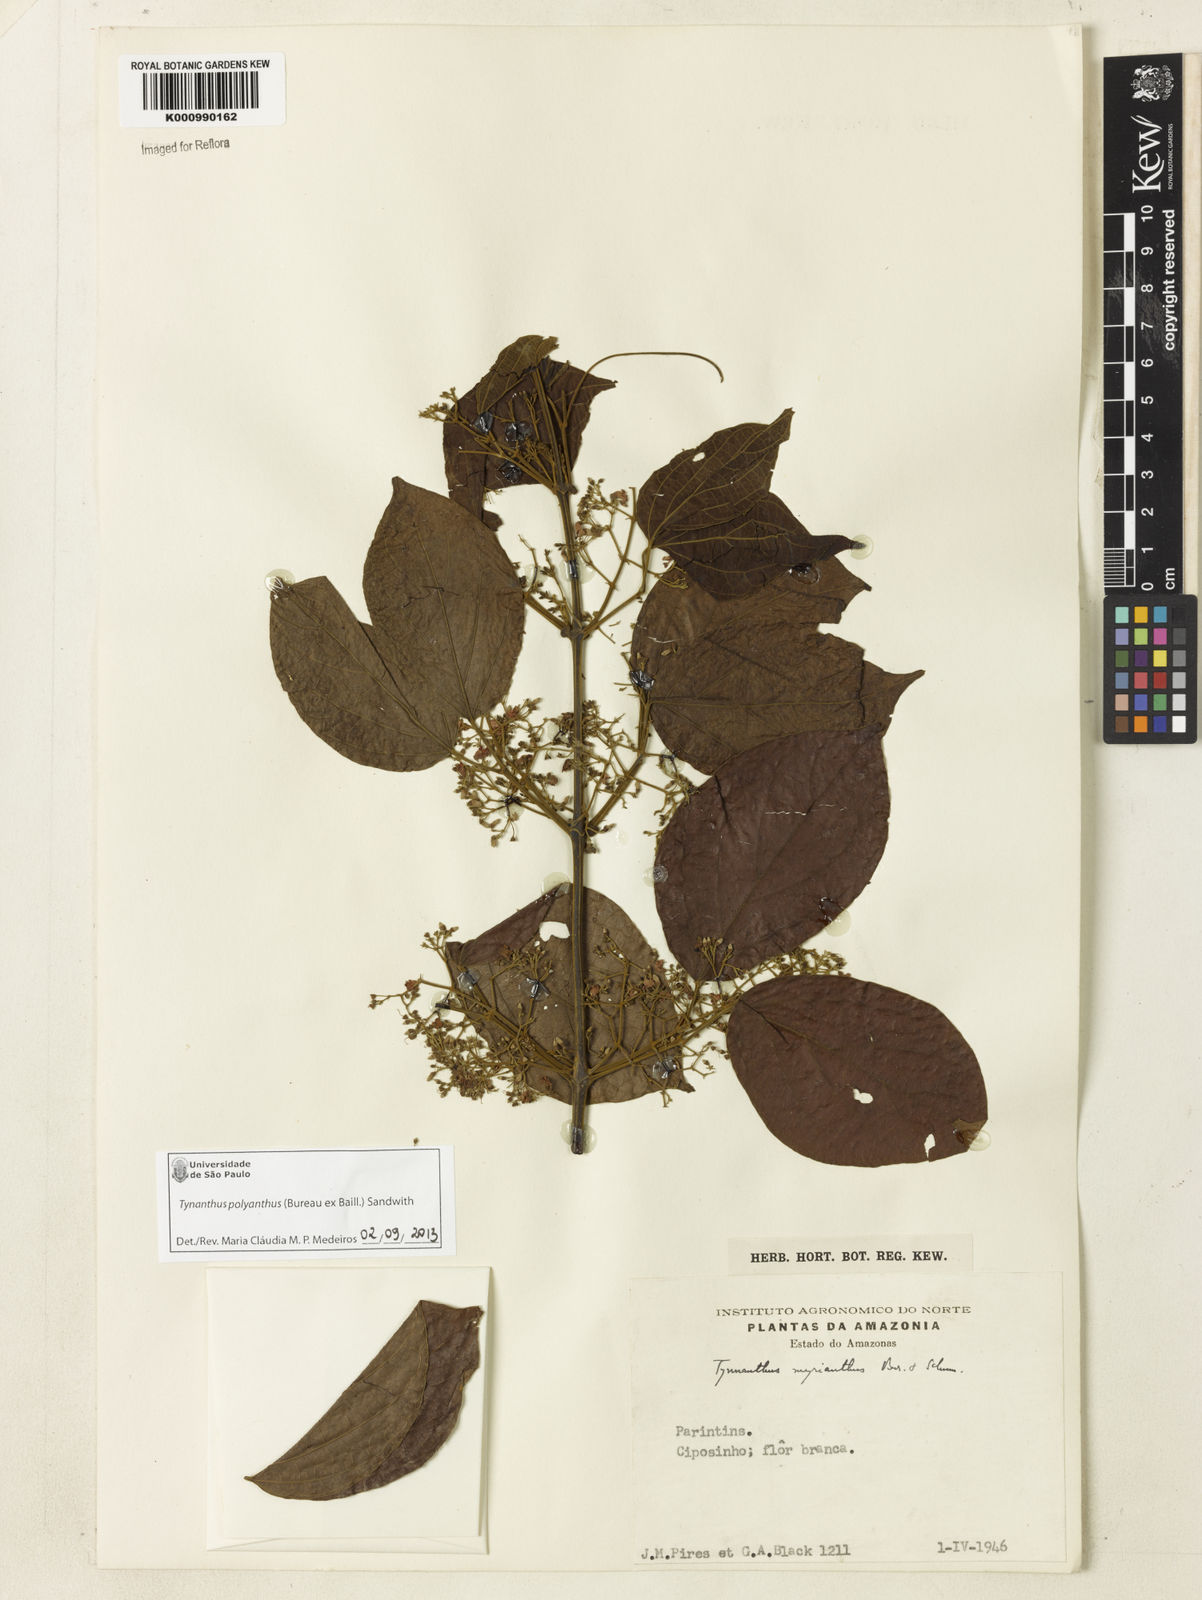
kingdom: Plantae
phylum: Tracheophyta
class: Magnoliopsida
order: Lamiales
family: Bignoniaceae
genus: Tynanthus
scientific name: Tynanthus polyanthus
